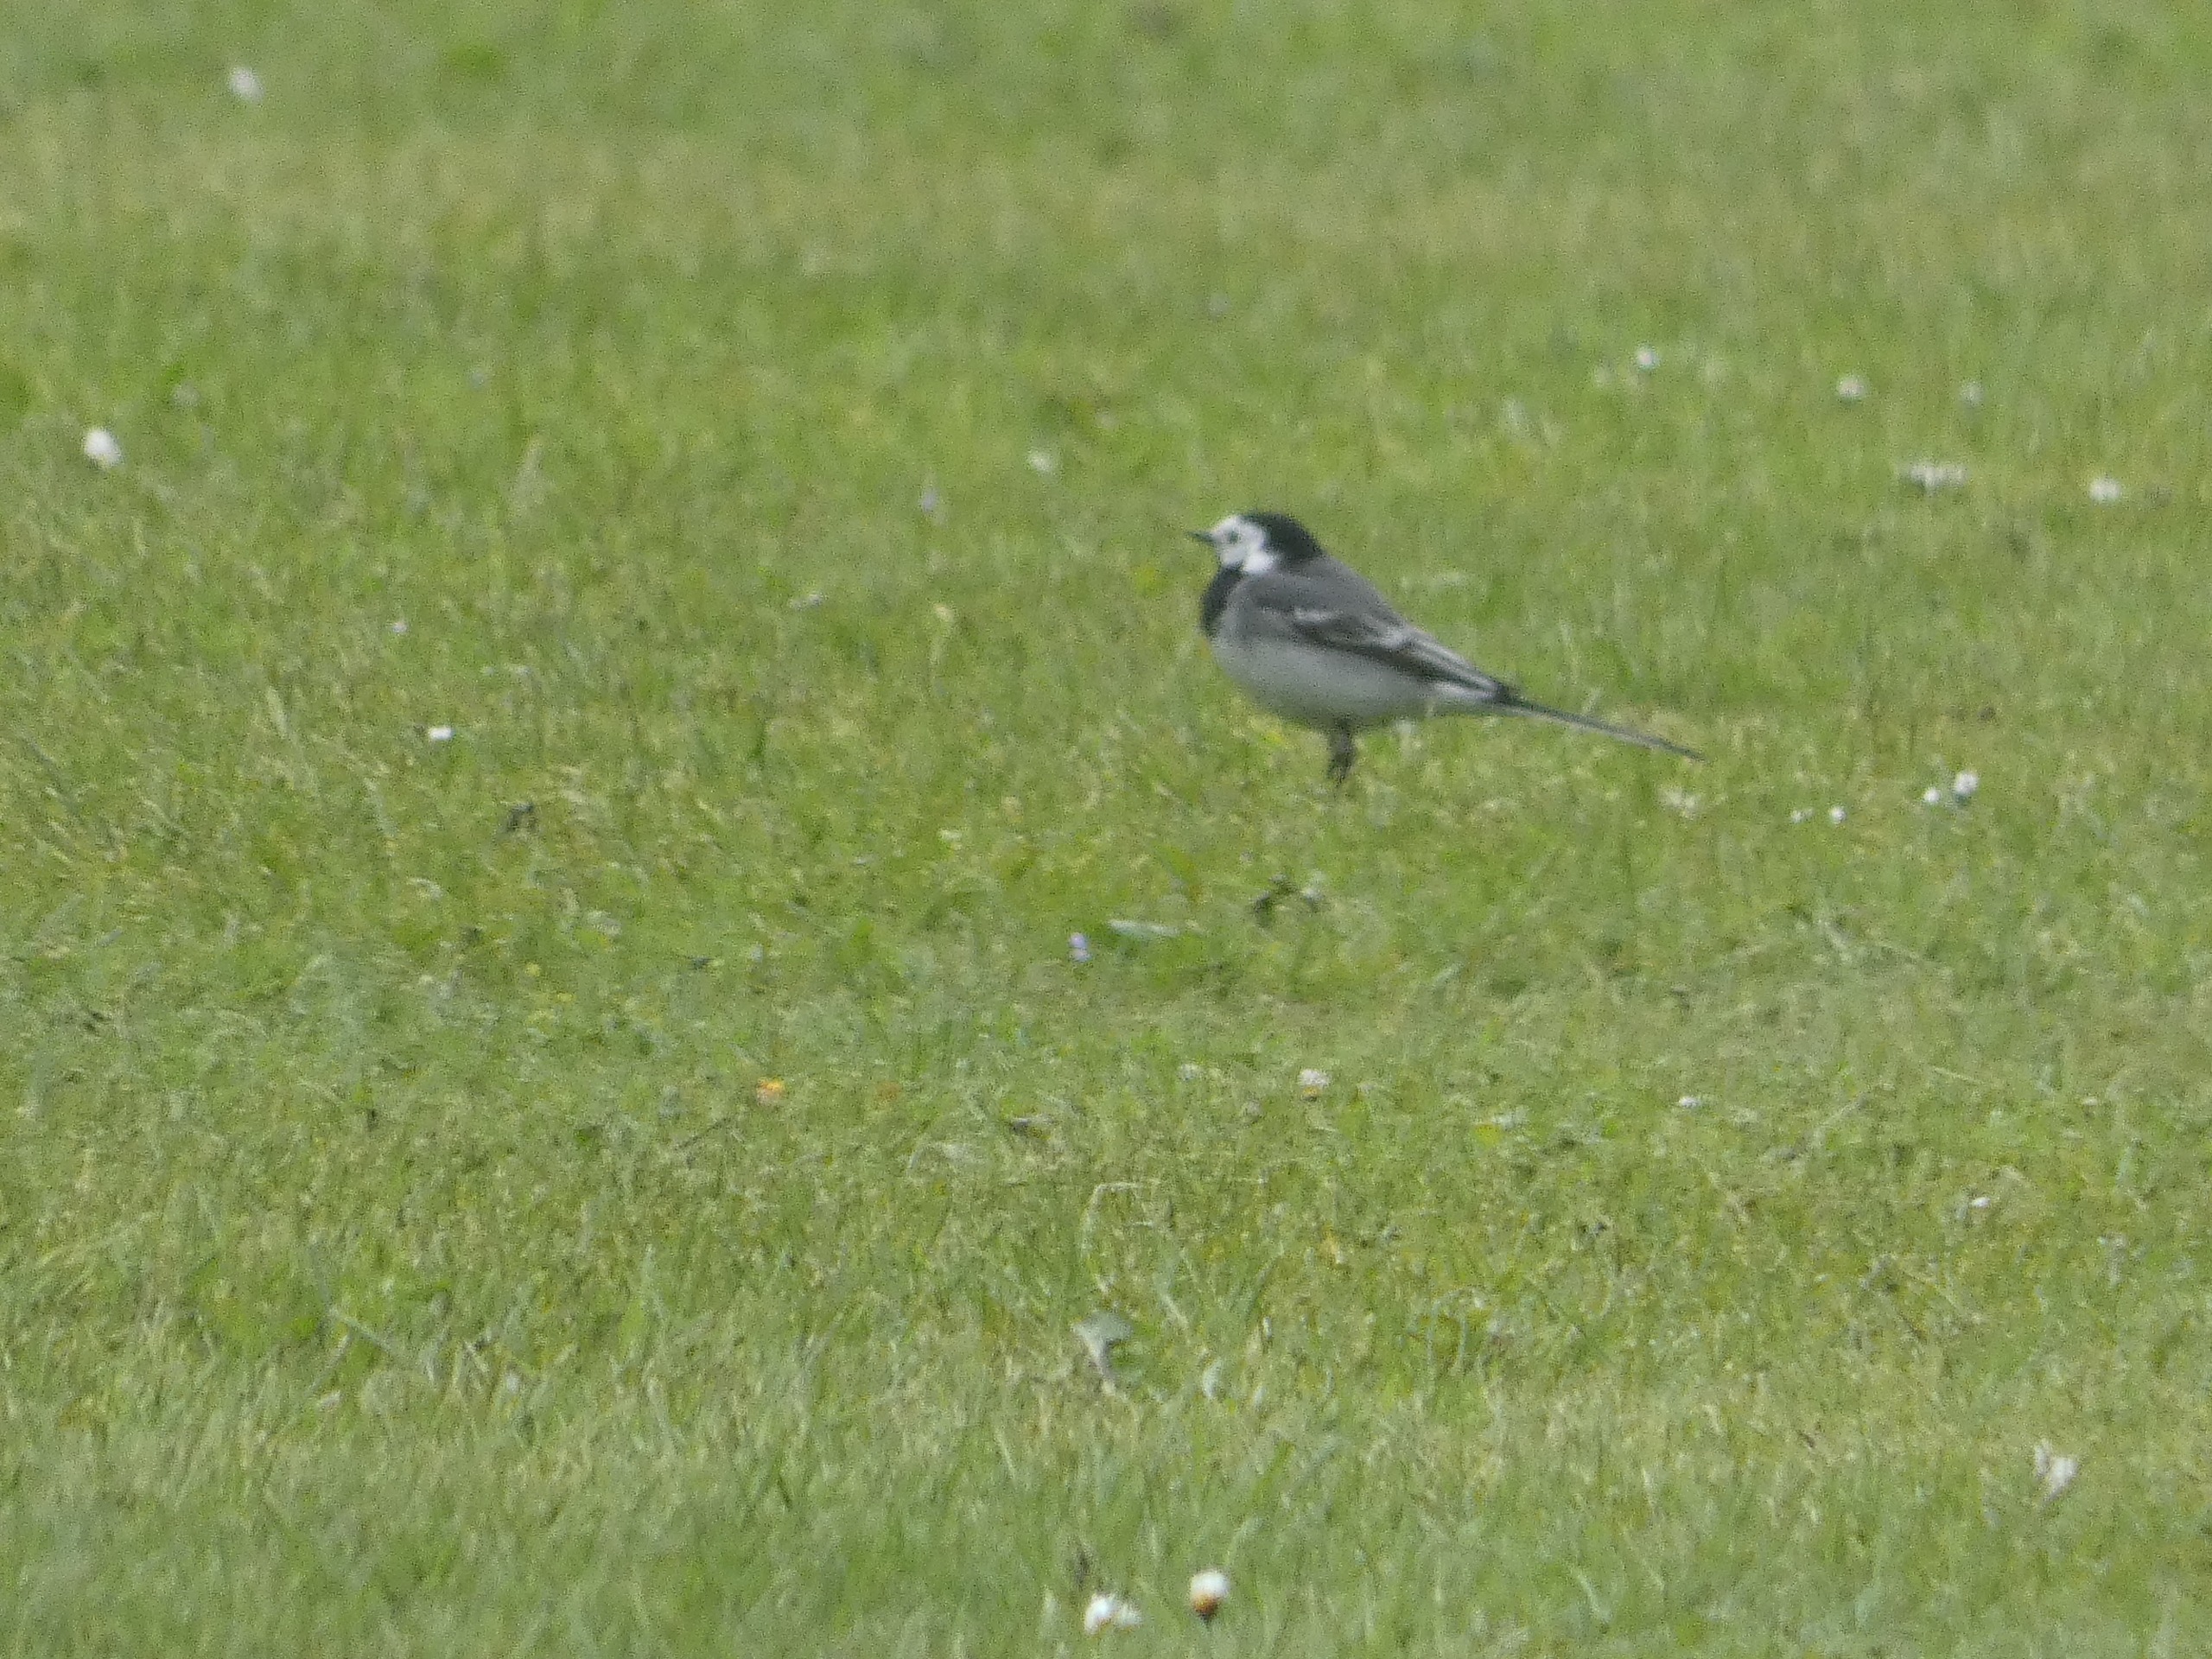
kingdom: Animalia
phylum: Chordata
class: Aves
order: Passeriformes
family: Motacillidae
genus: Motacilla
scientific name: Motacilla alba
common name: Hvid vipstjert
